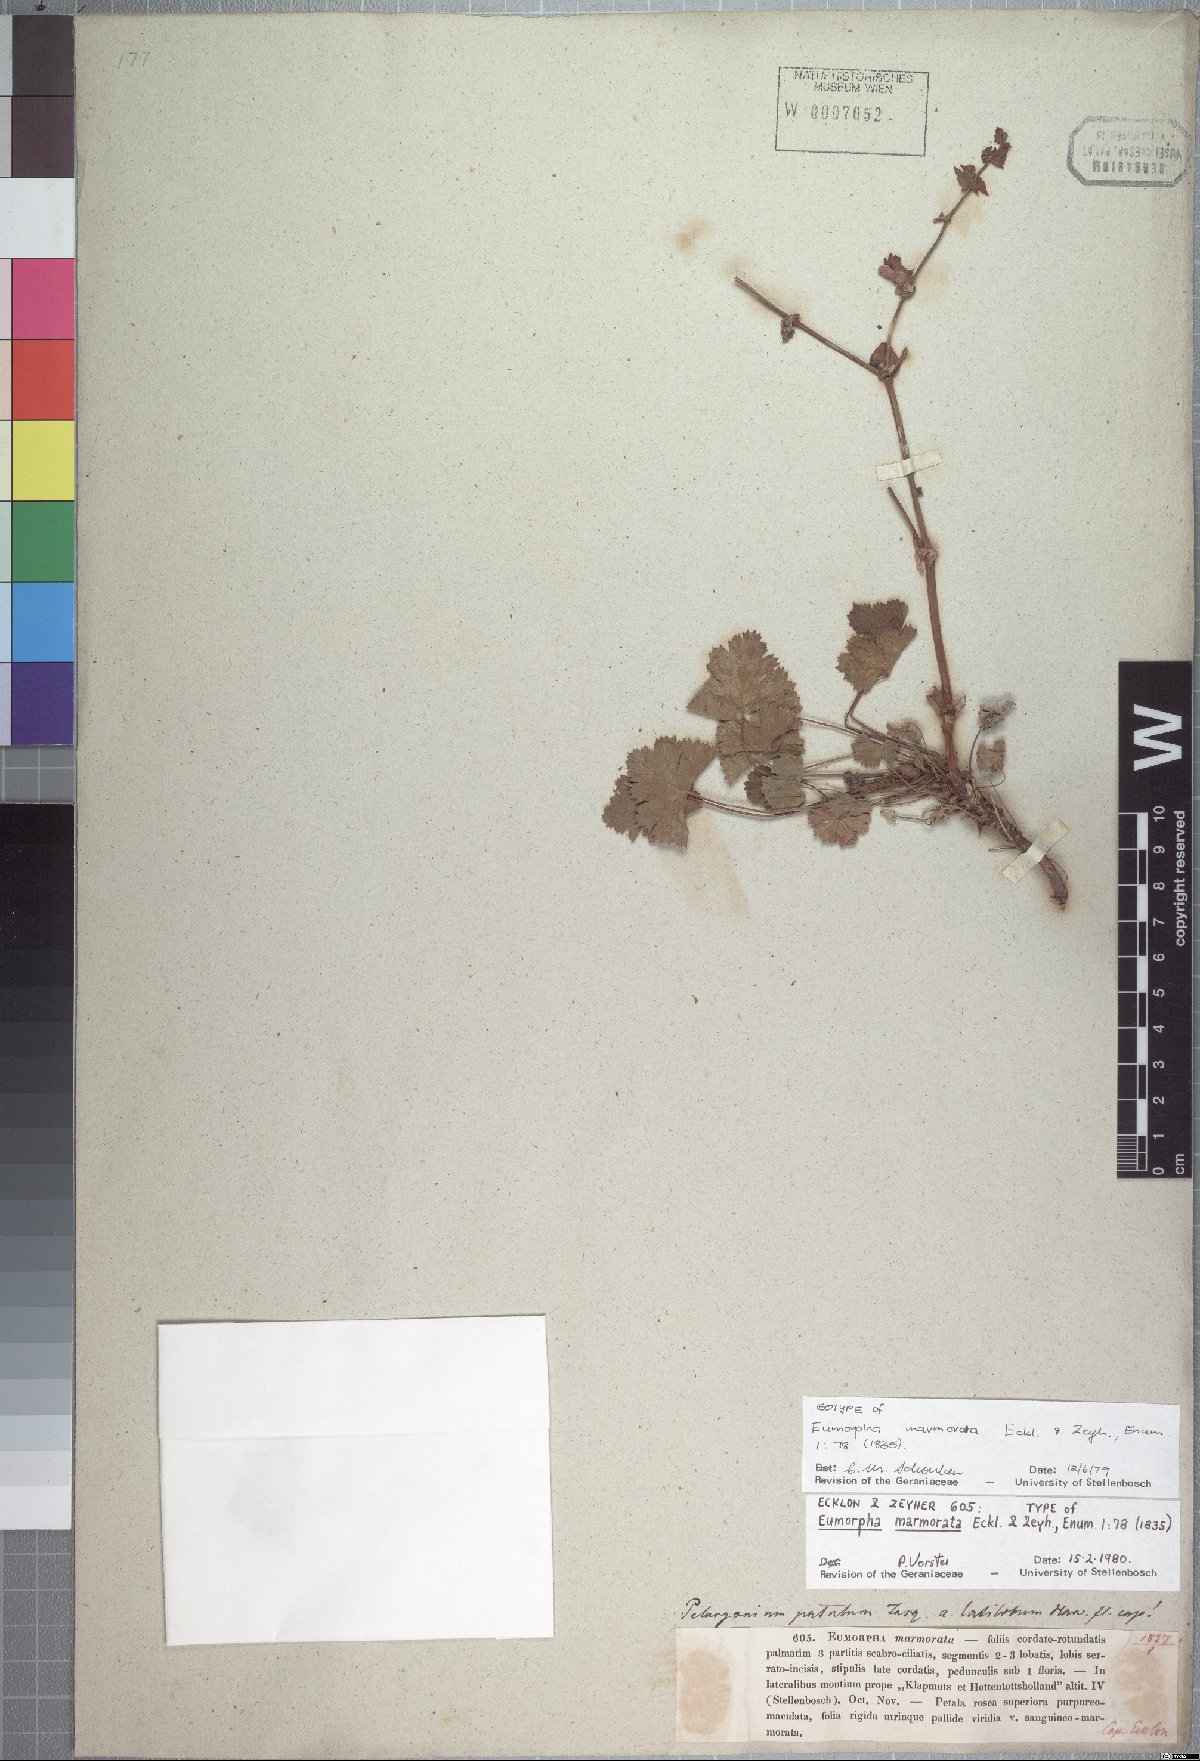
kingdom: Plantae
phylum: Tracheophyta
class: Magnoliopsida
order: Geraniales
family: Geraniaceae
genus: Pelargonium
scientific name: Pelargonium patulum
